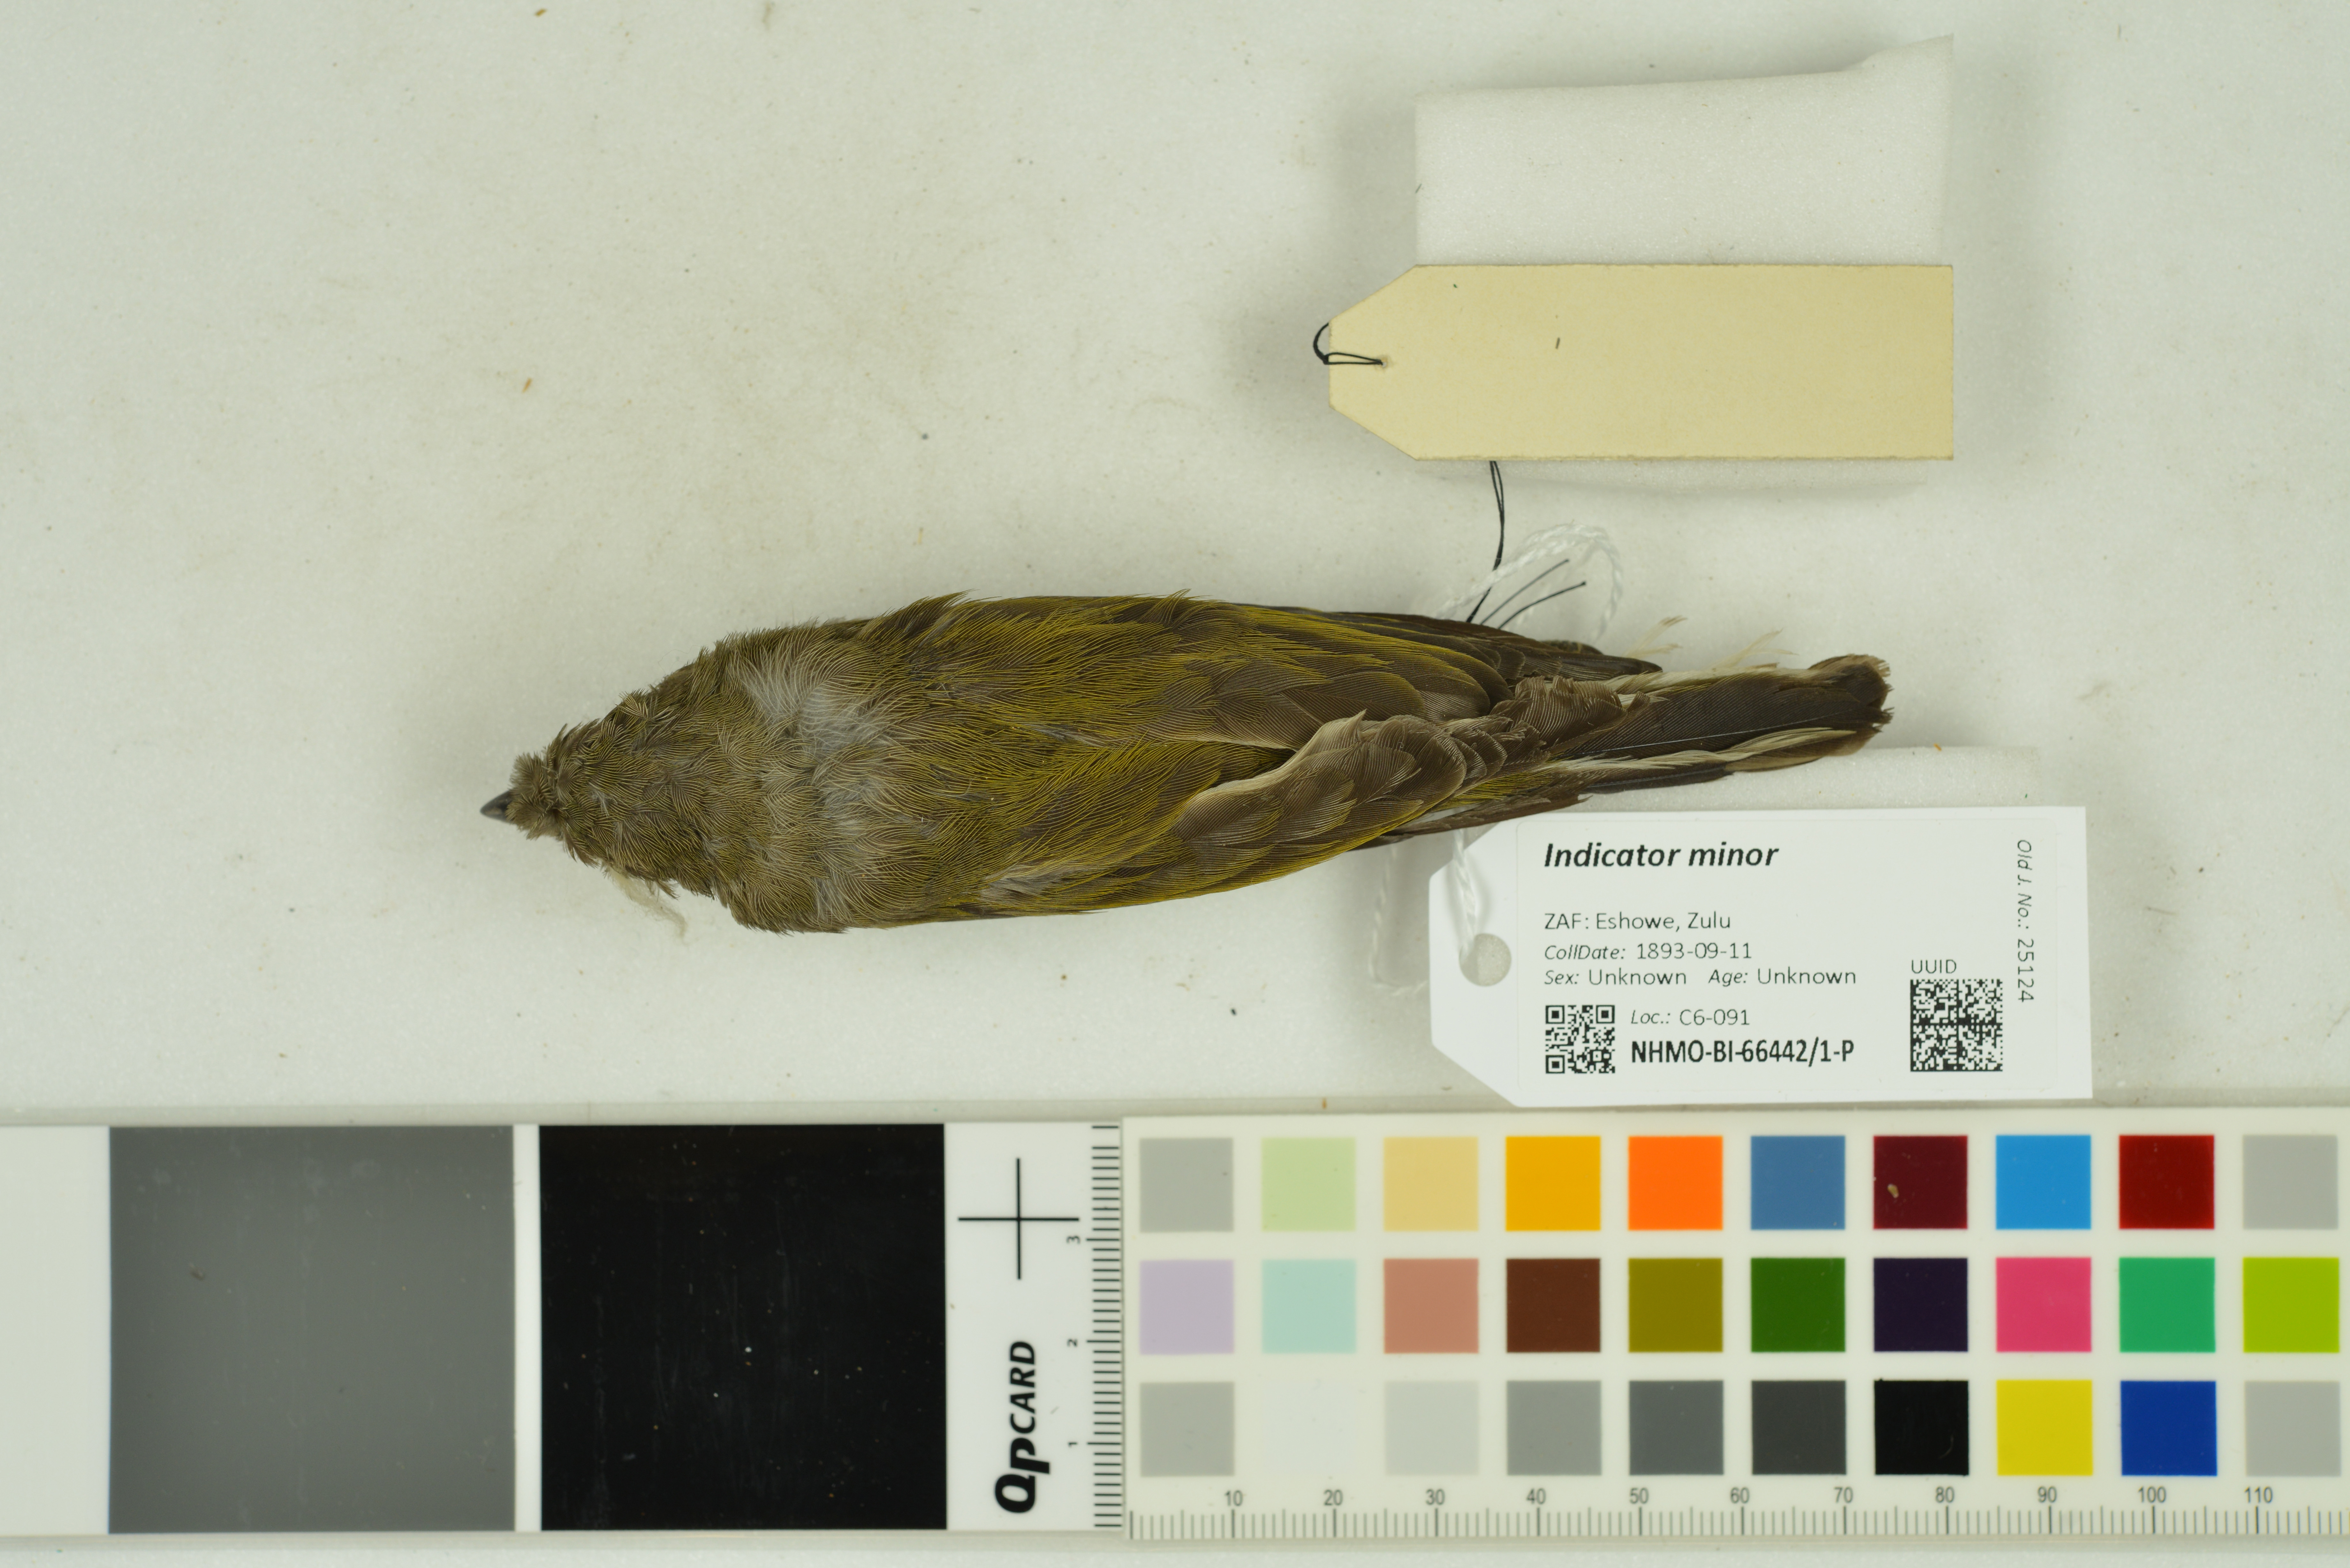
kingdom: Animalia
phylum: Chordata
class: Aves
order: Piciformes
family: Indicatoridae
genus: Indicator
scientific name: Indicator minor
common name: Lesser honeyguide
